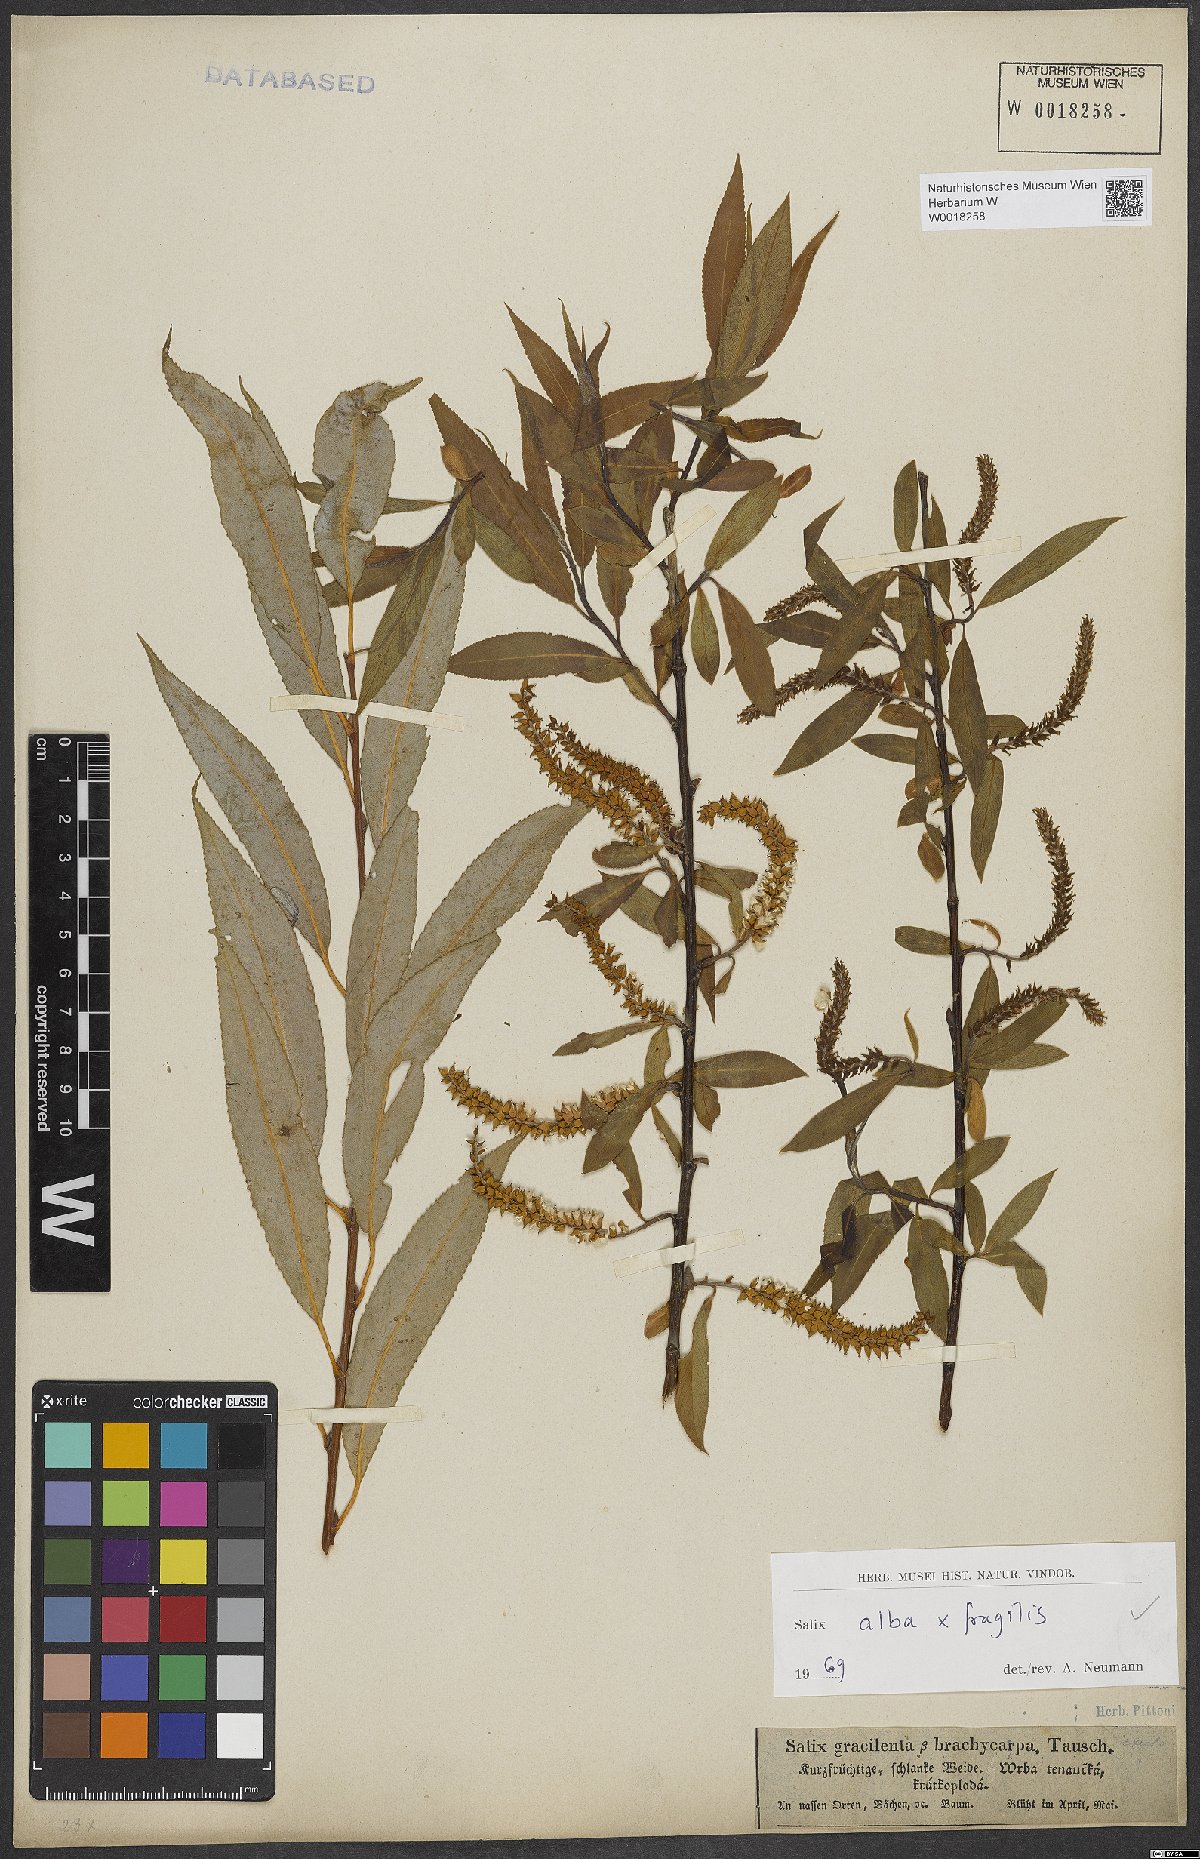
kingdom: Plantae
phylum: Tracheophyta
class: Magnoliopsida
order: Malpighiales
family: Salicaceae
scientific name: Salicaceae
